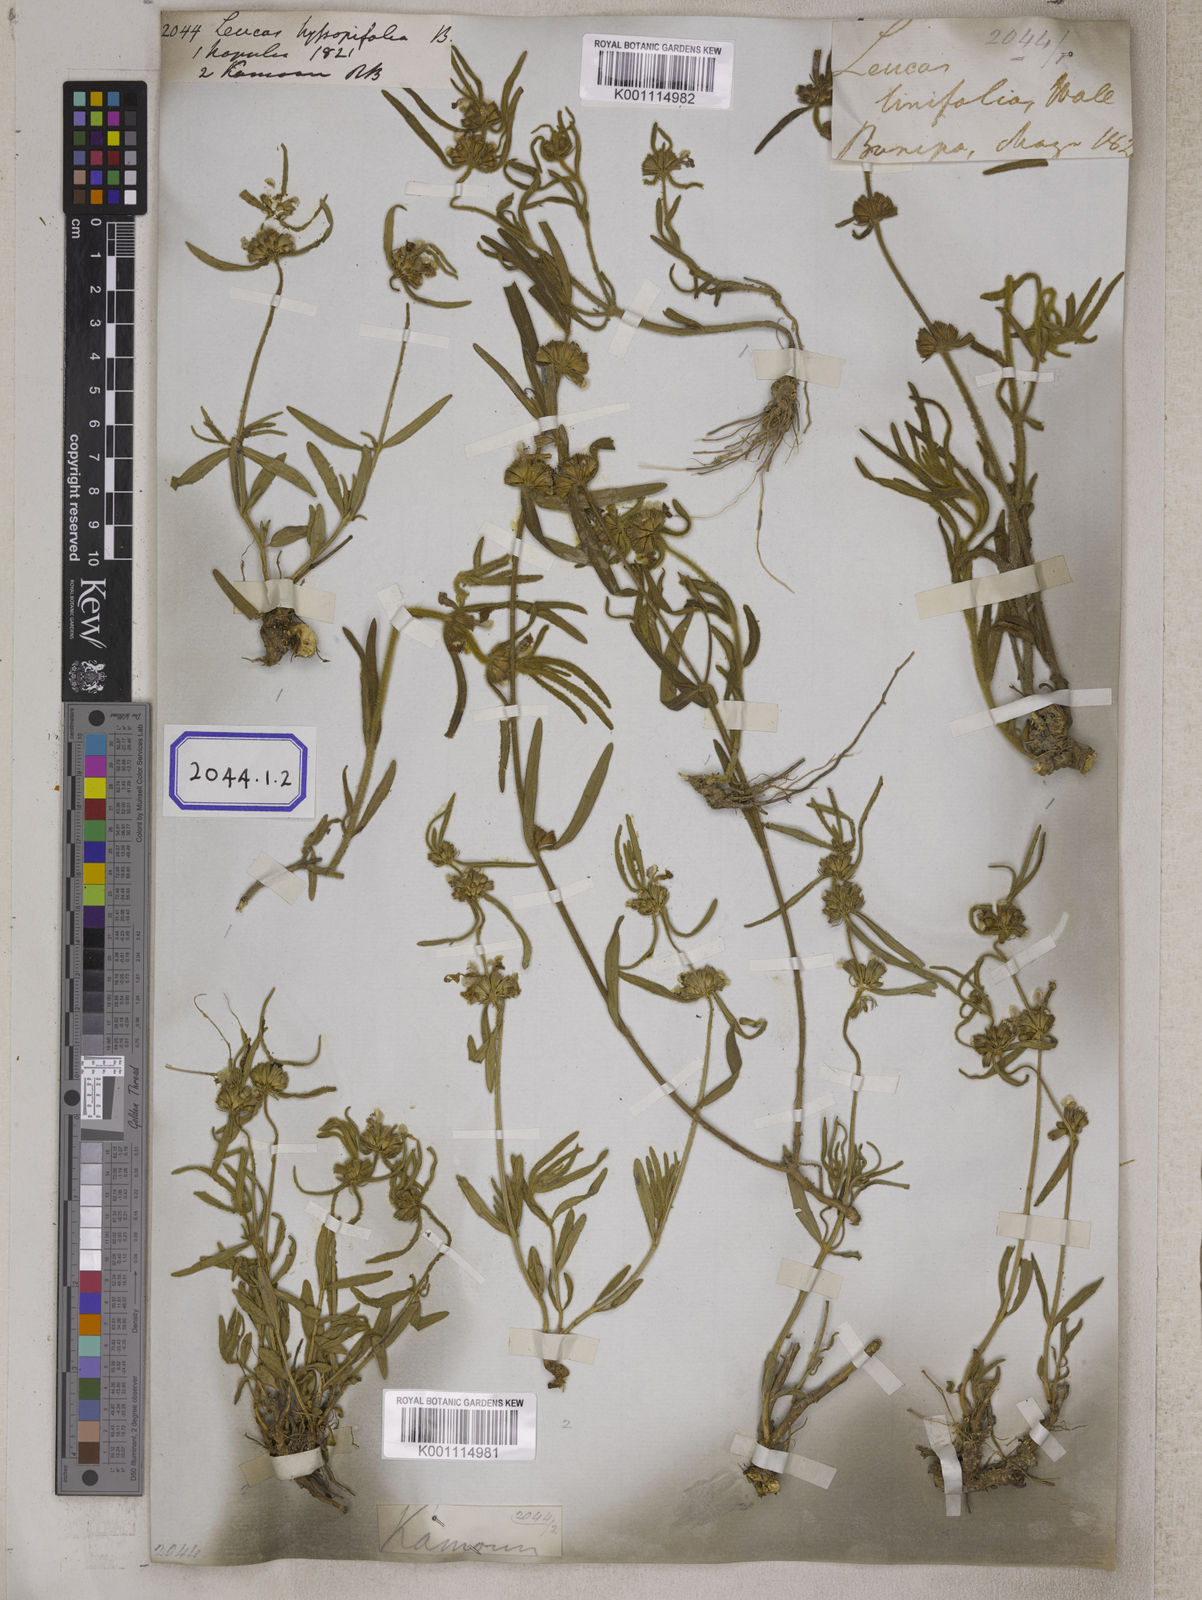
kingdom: Plantae
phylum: Tracheophyta
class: Magnoliopsida
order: Lamiales
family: Lamiaceae
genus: Leucas
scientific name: Leucas hyssopifolia
